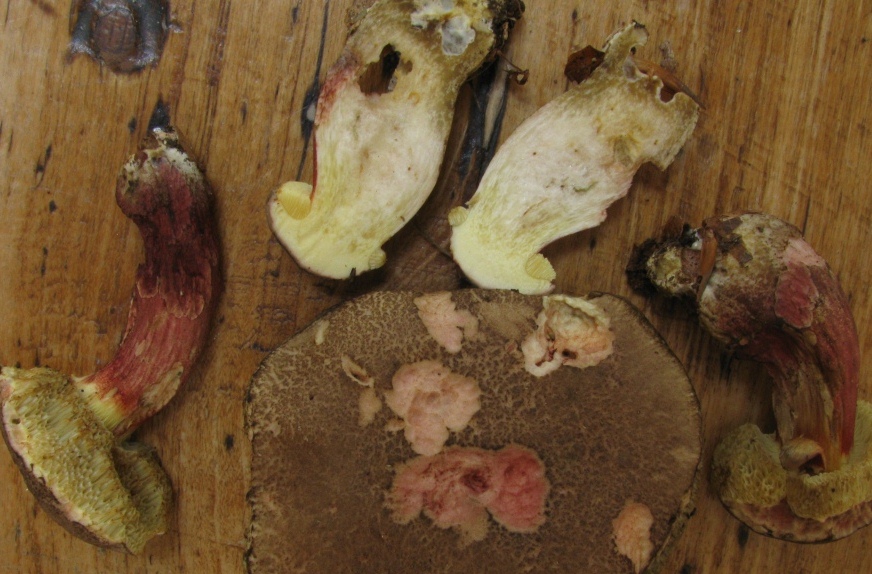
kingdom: Fungi
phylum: Basidiomycota
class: Agaricomycetes
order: Boletales
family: Boletaceae
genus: Xerocomellus
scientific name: Xerocomellus chrysenteron
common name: rødsprukken rørhat
